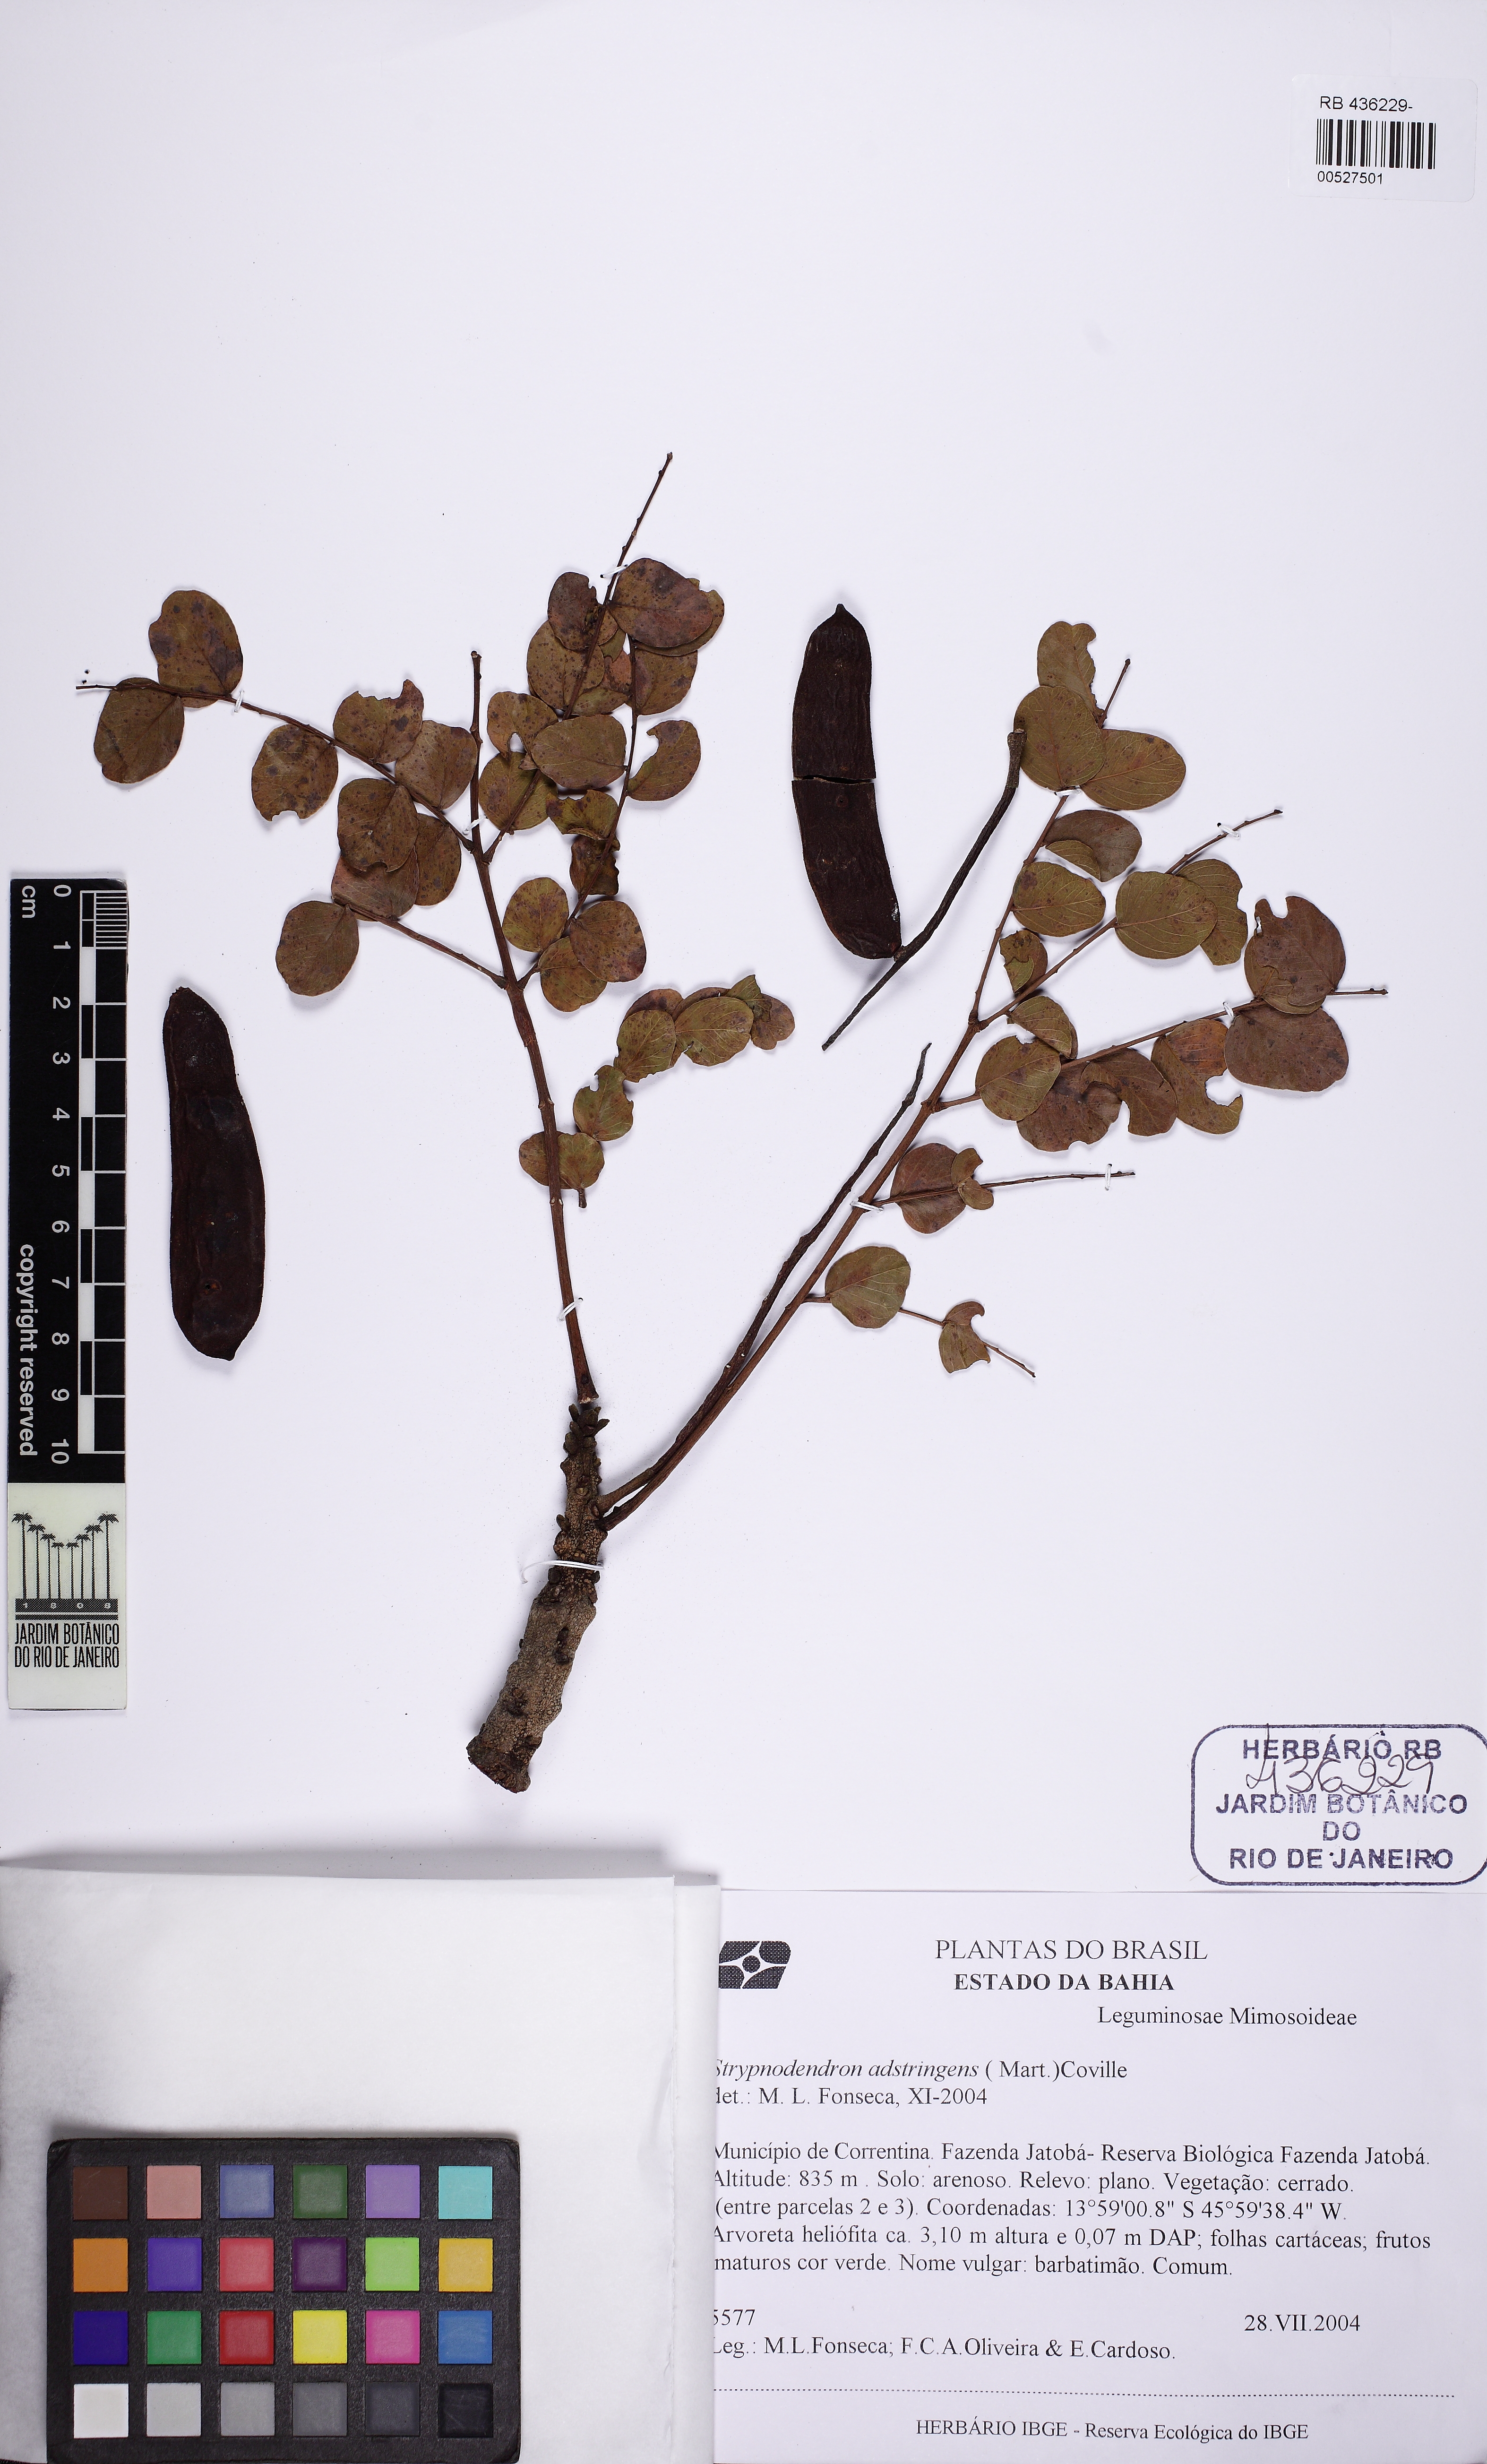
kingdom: Plantae
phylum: Tracheophyta
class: Magnoliopsida
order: Fabales
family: Fabaceae
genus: Stryphnodendron
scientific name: Stryphnodendron adstringens
